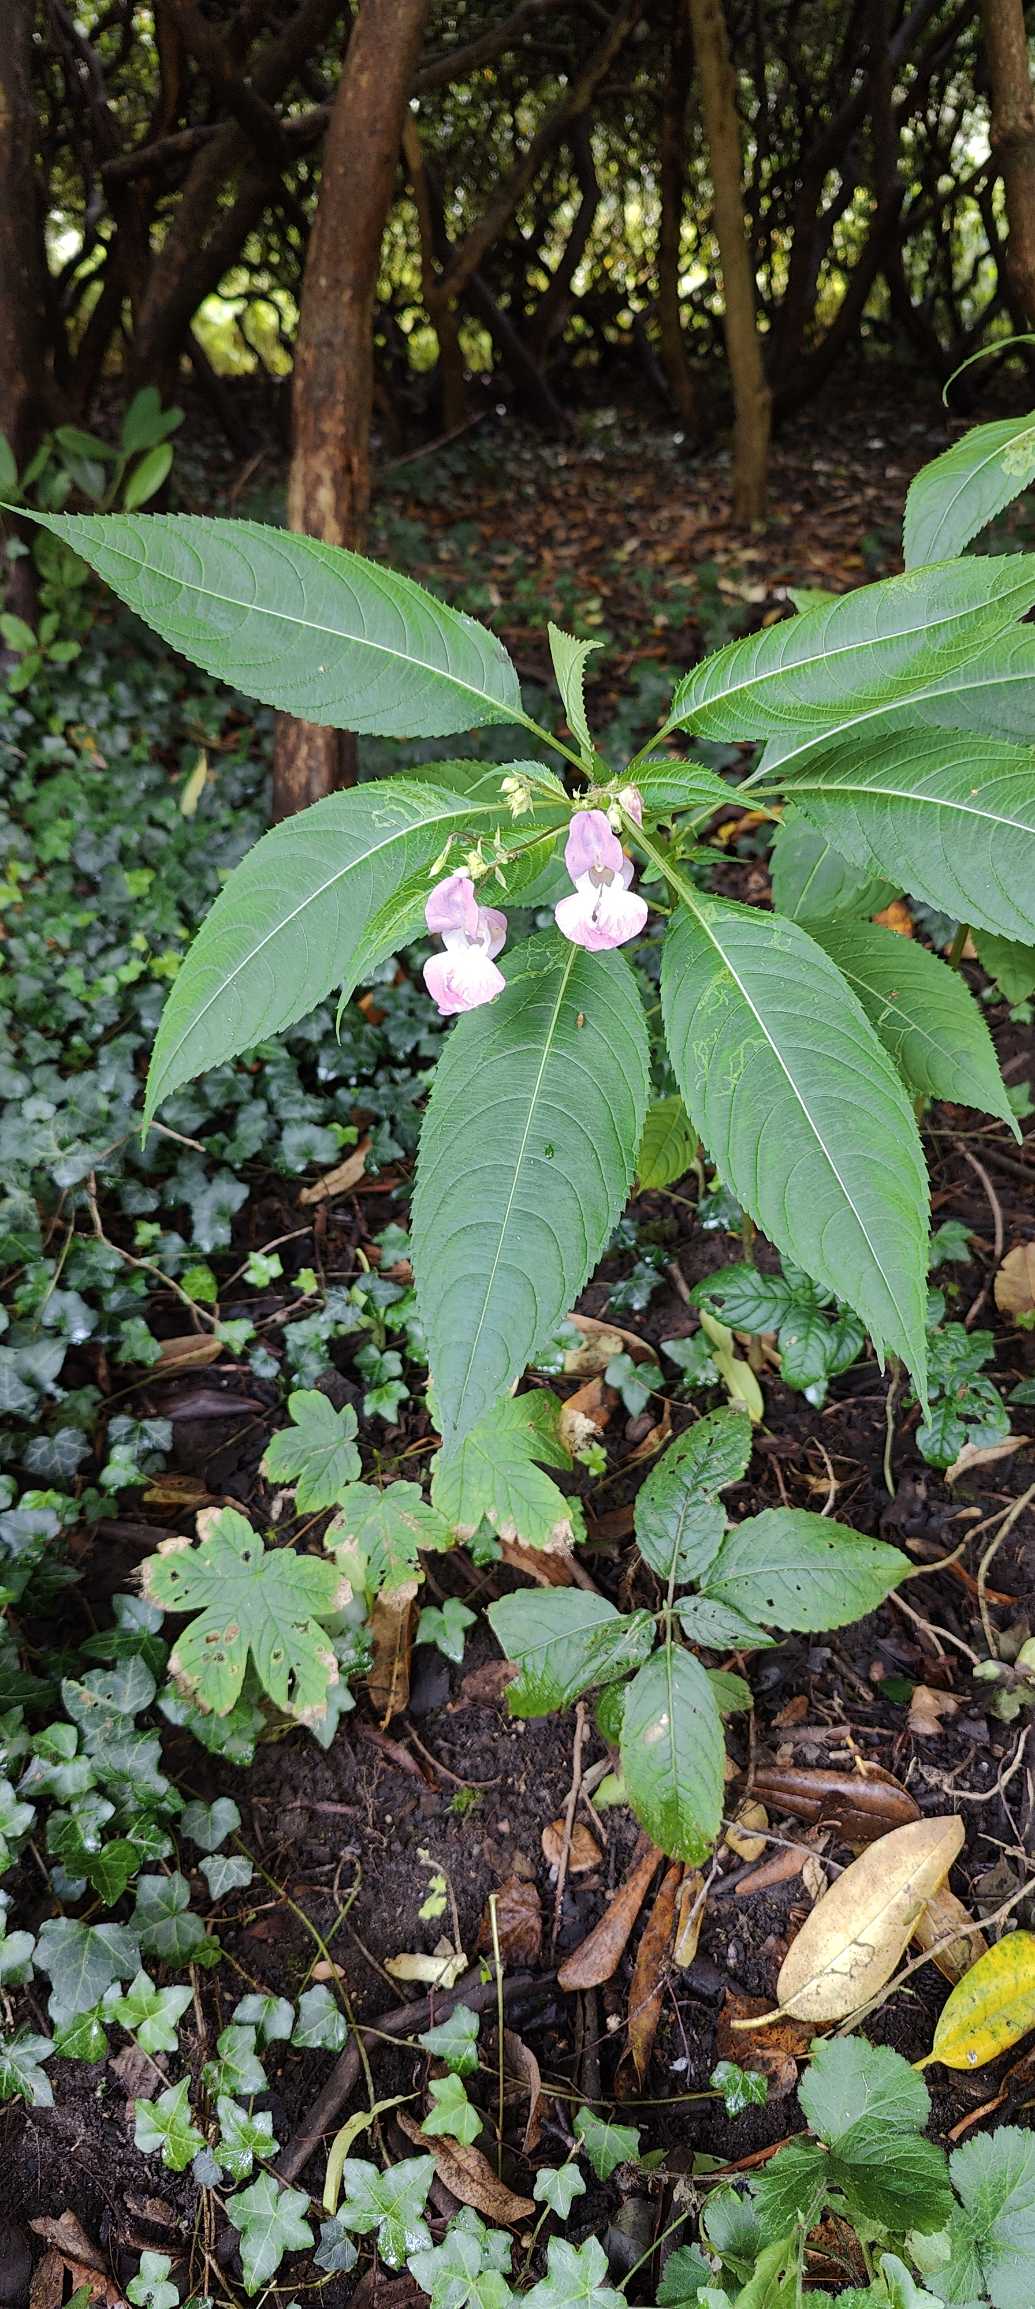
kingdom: Plantae
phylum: Tracheophyta
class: Magnoliopsida
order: Ericales
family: Balsaminaceae
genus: Impatiens
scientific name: Impatiens glandulifera
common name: Kæmpe-balsamin
